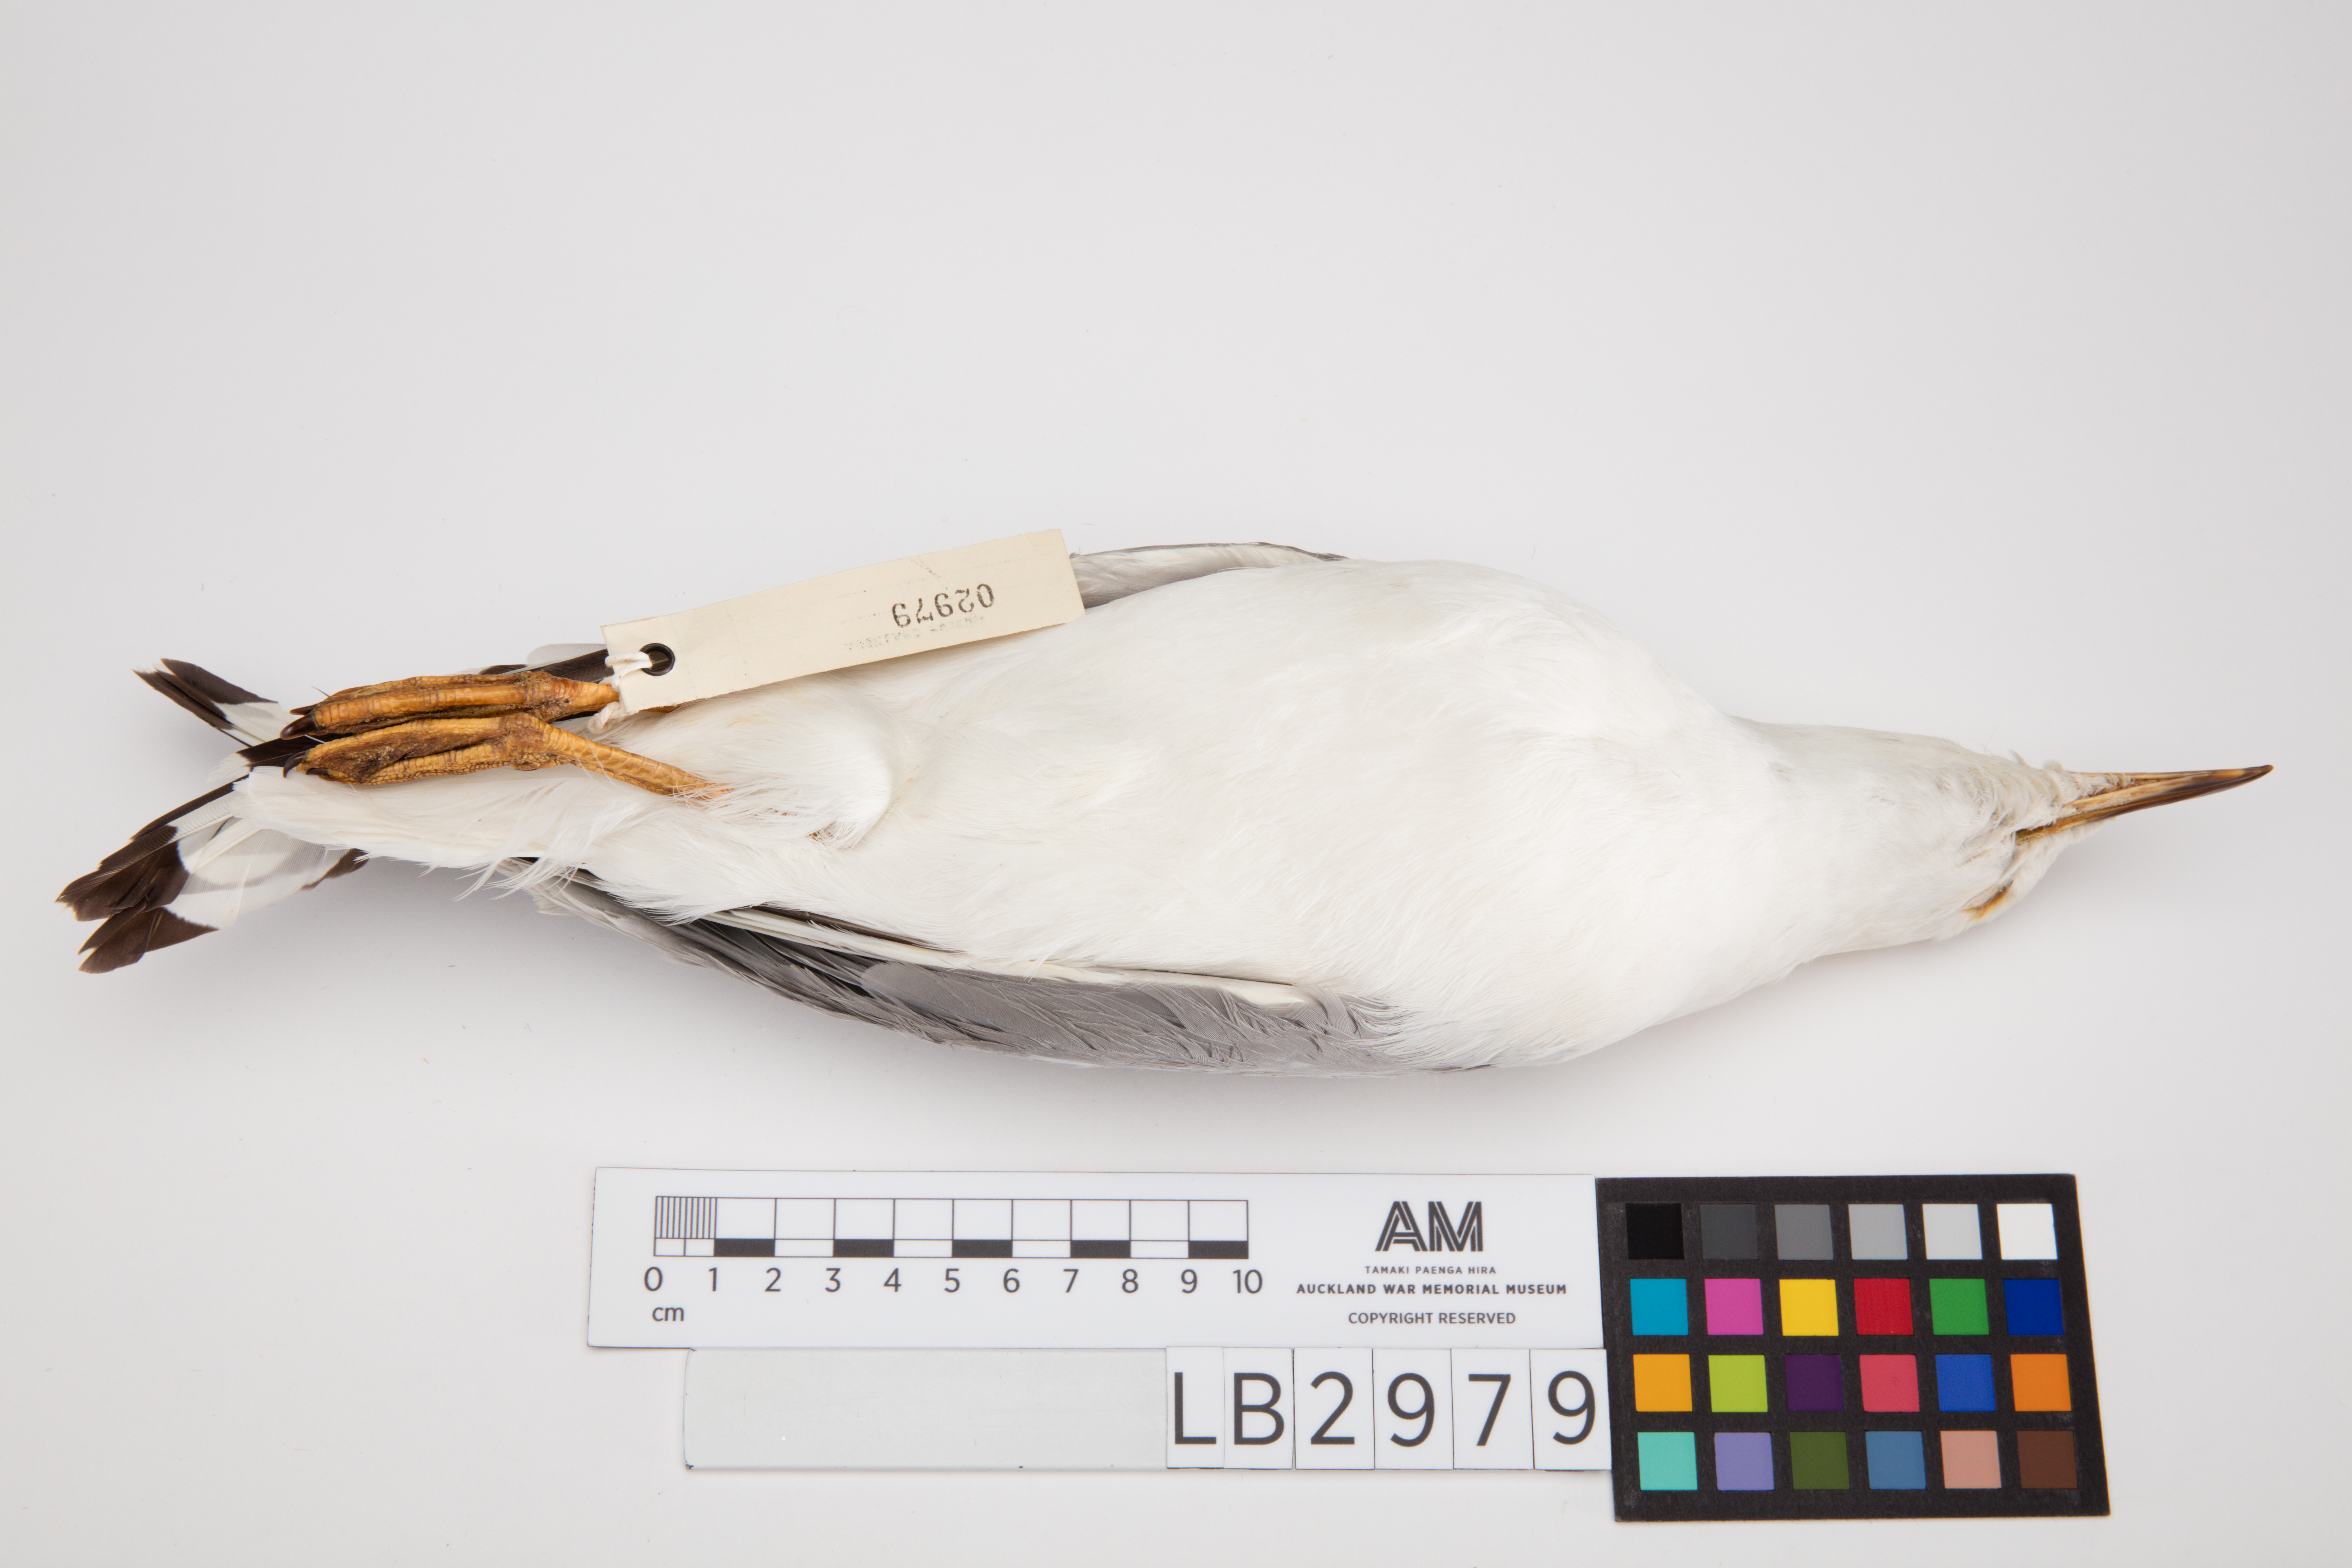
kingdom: Animalia
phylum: Chordata
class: Aves
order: Charadriiformes
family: Laridae
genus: Chroicocephalus
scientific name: Chroicocephalus novaehollandiae
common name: Silver gull
